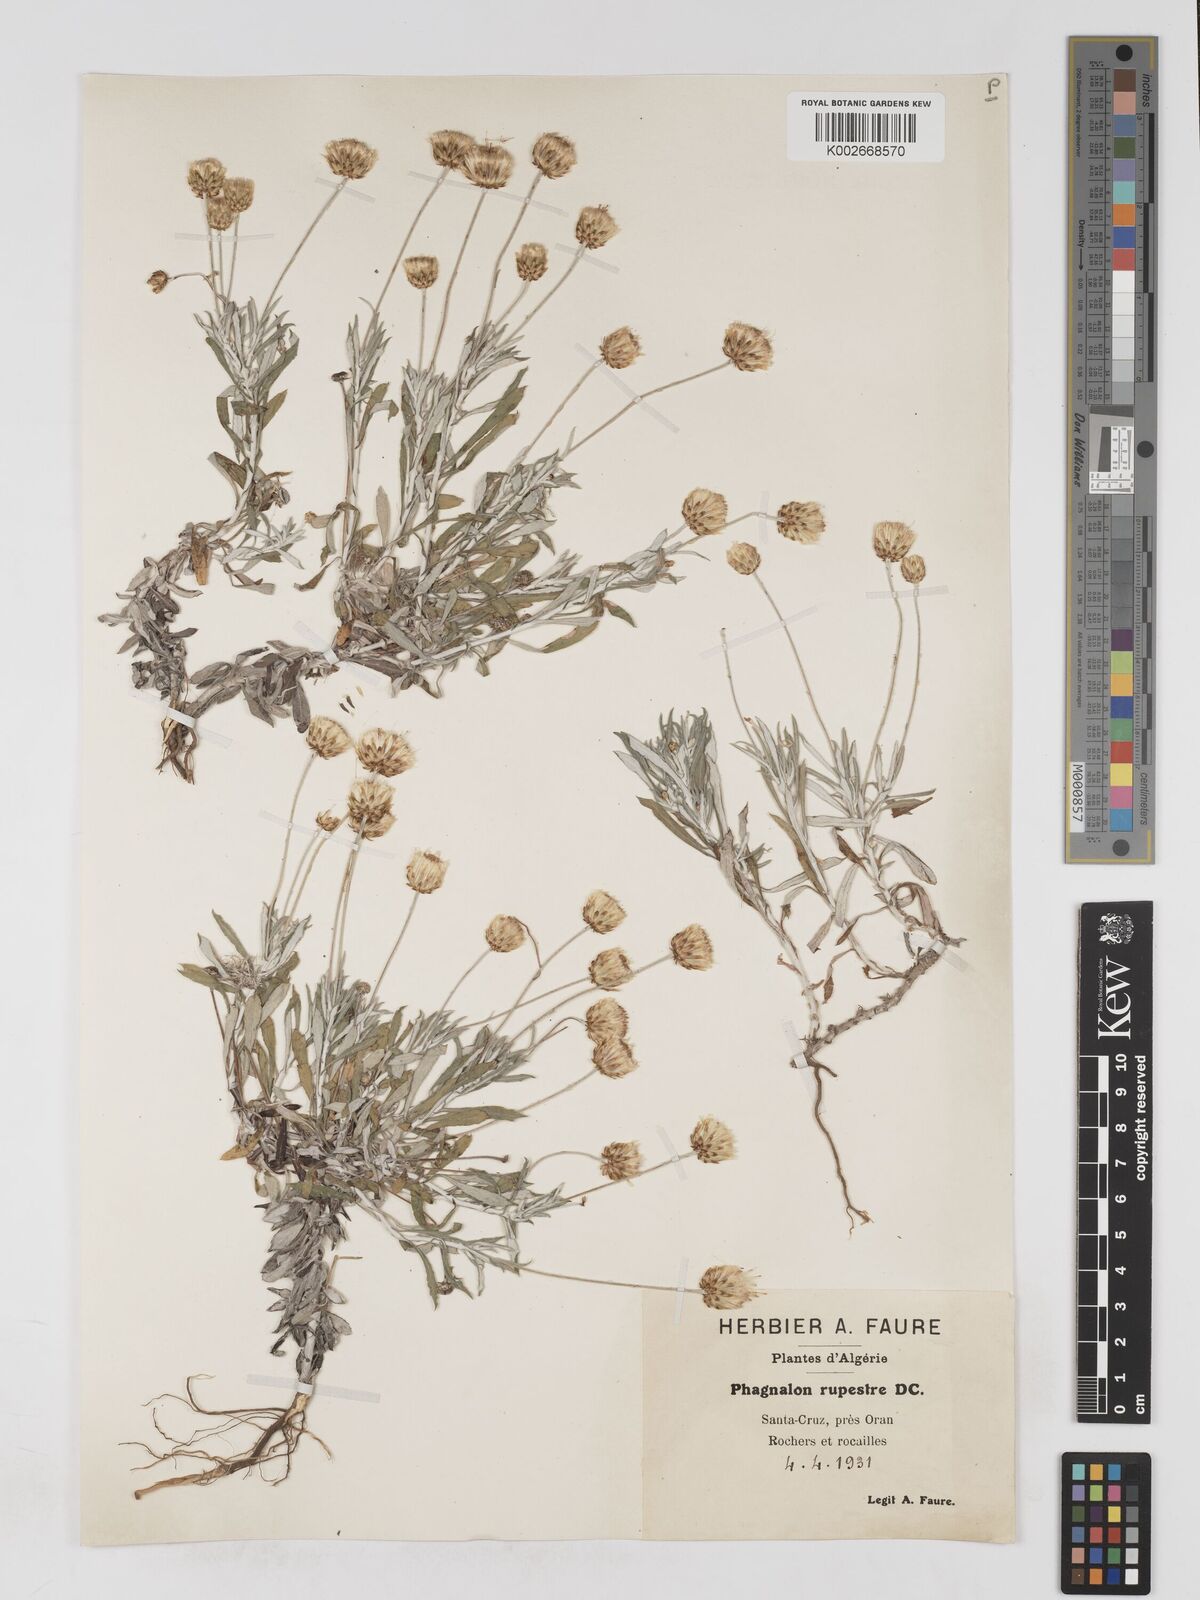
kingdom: Plantae
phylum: Tracheophyta
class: Magnoliopsida
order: Asterales
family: Asteraceae
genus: Phagnalon
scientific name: Phagnalon rupestre
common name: Rock phagnalon
